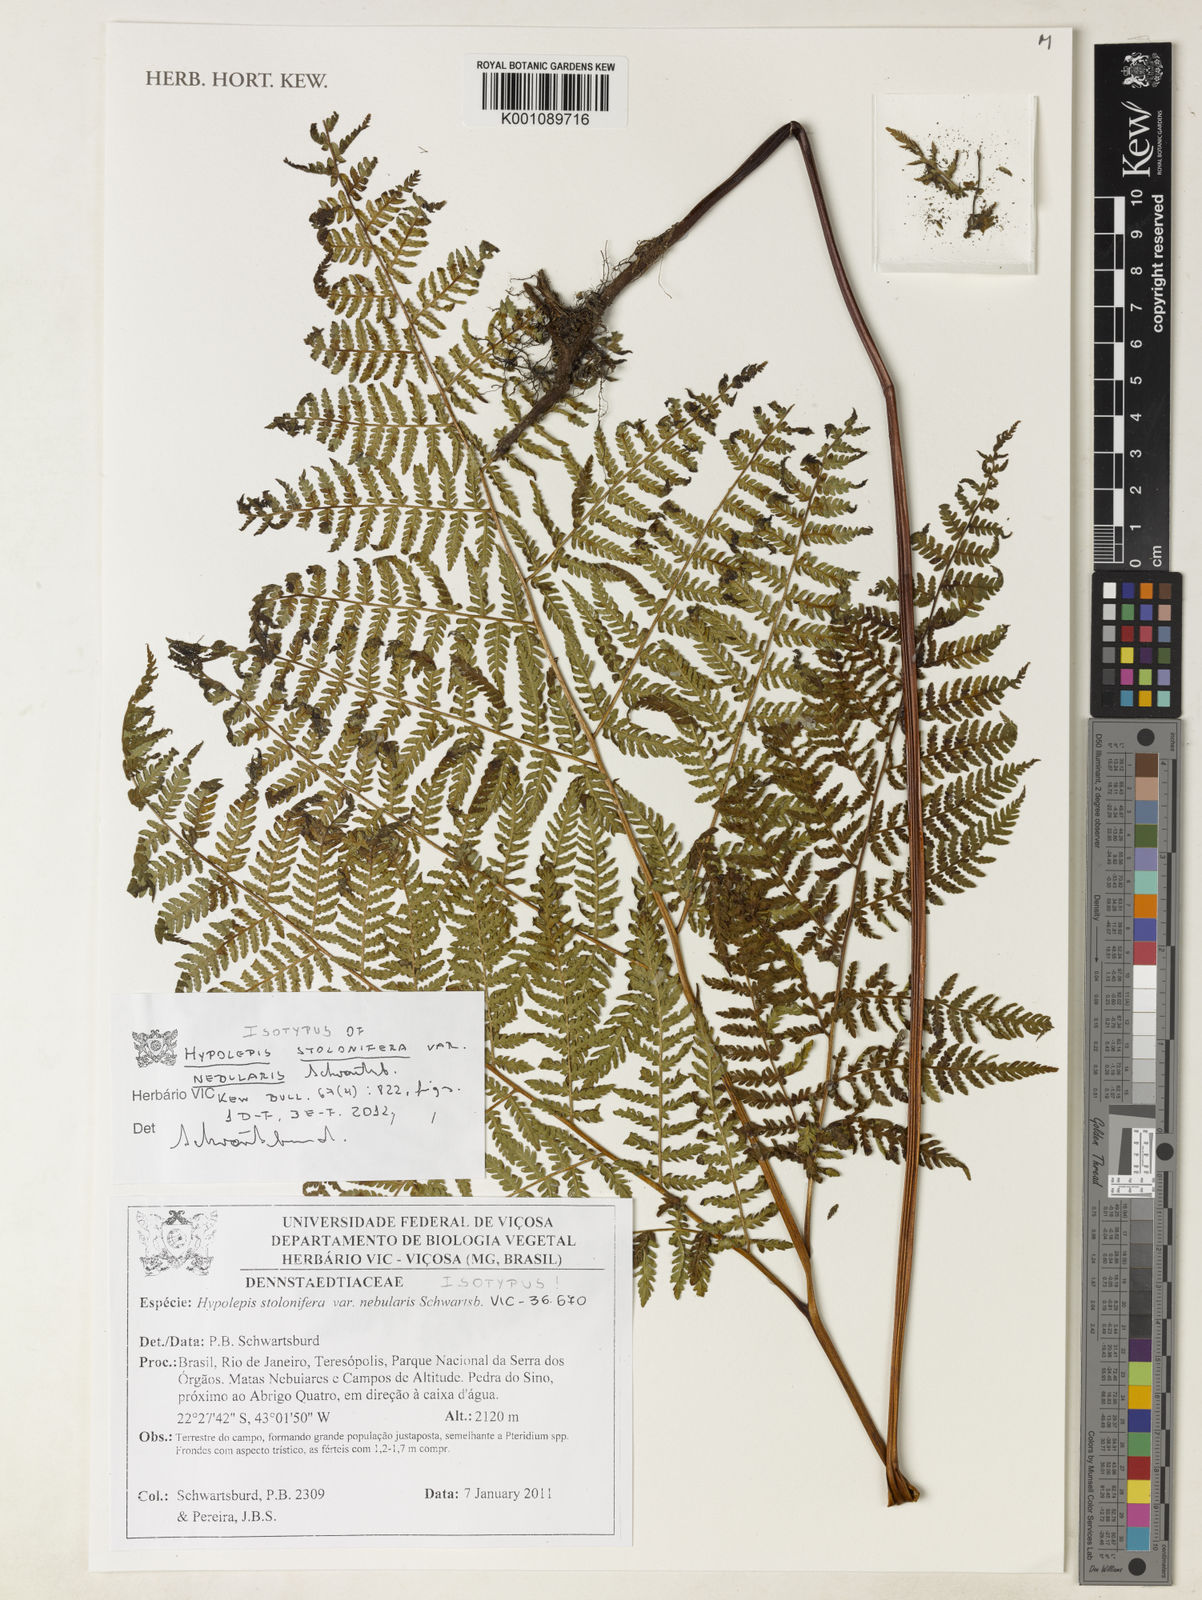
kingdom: Plantae
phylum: Tracheophyta
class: Polypodiopsida
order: Polypodiales
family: Dennstaedtiaceae
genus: Hypolepis
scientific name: Hypolepis stolonifera
